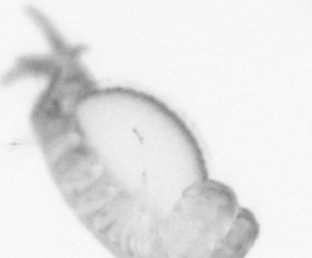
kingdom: Animalia
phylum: Annelida
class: Polychaeta
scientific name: Polychaeta
